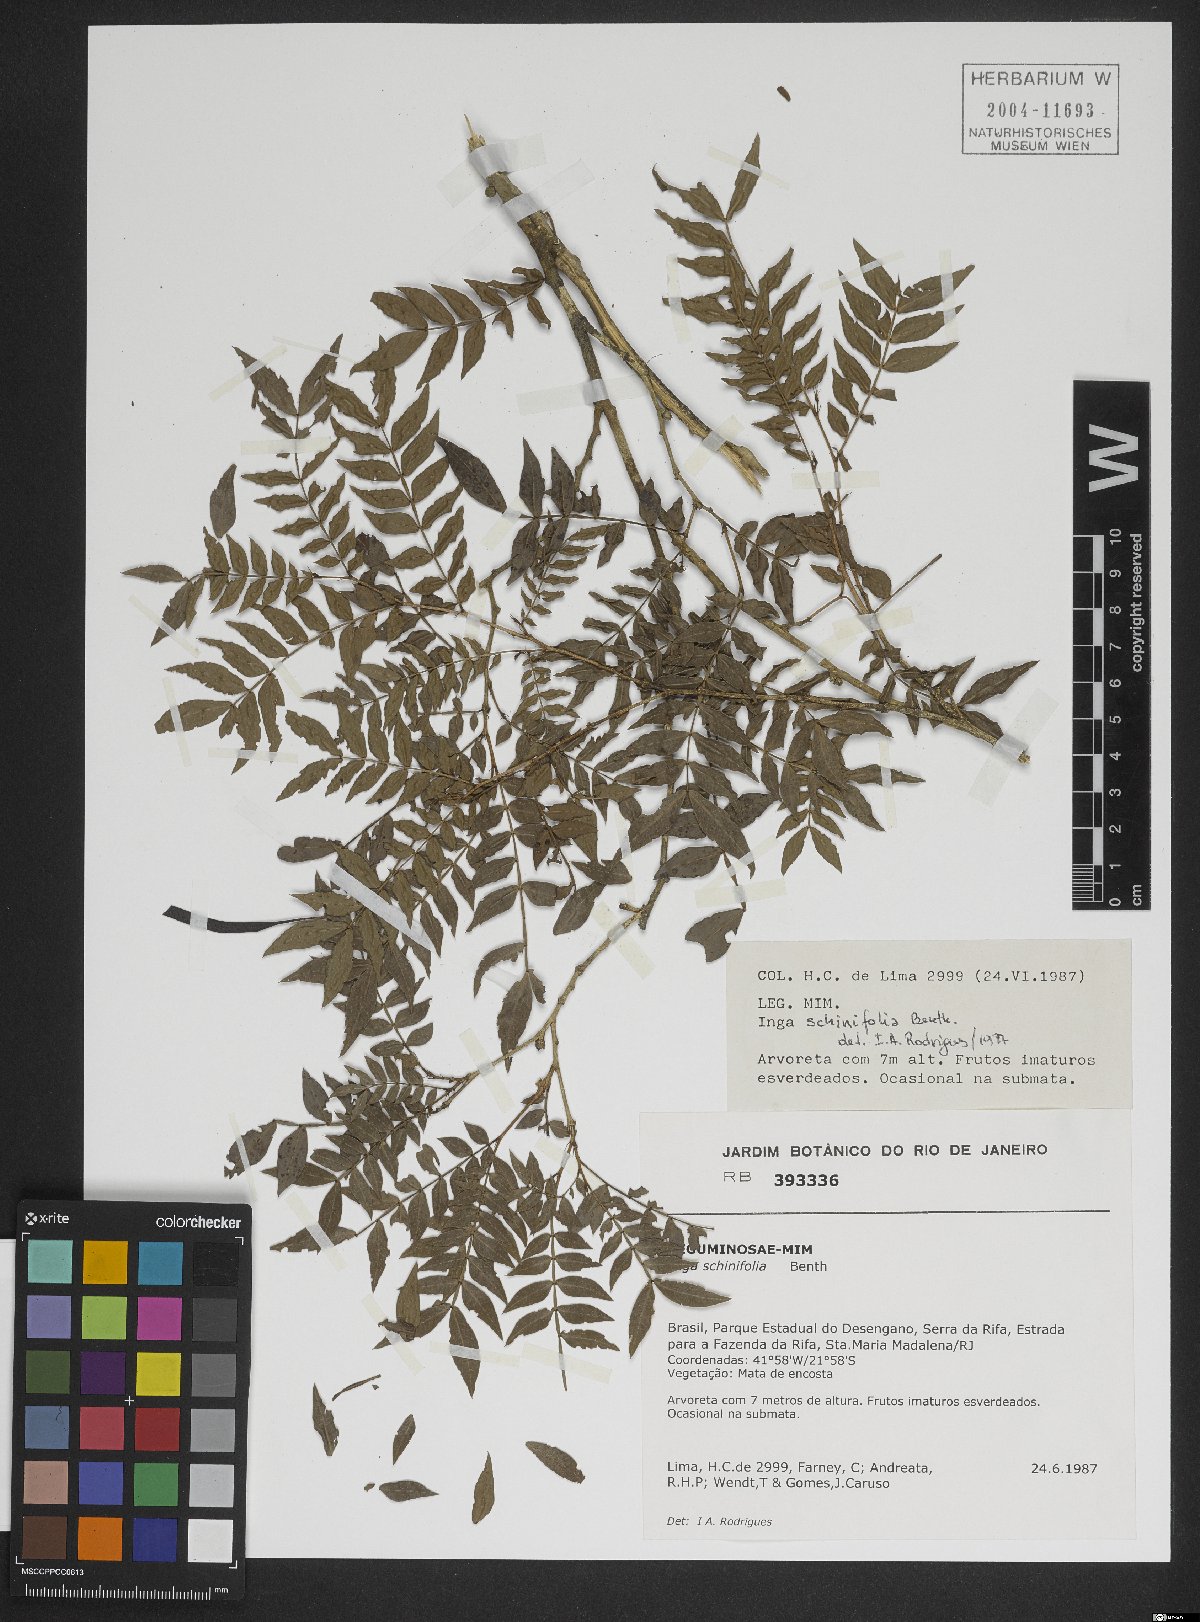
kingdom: Plantae
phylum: Tracheophyta
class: Magnoliopsida
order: Fabales
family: Fabaceae
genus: Inga
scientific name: Inga tenuis
